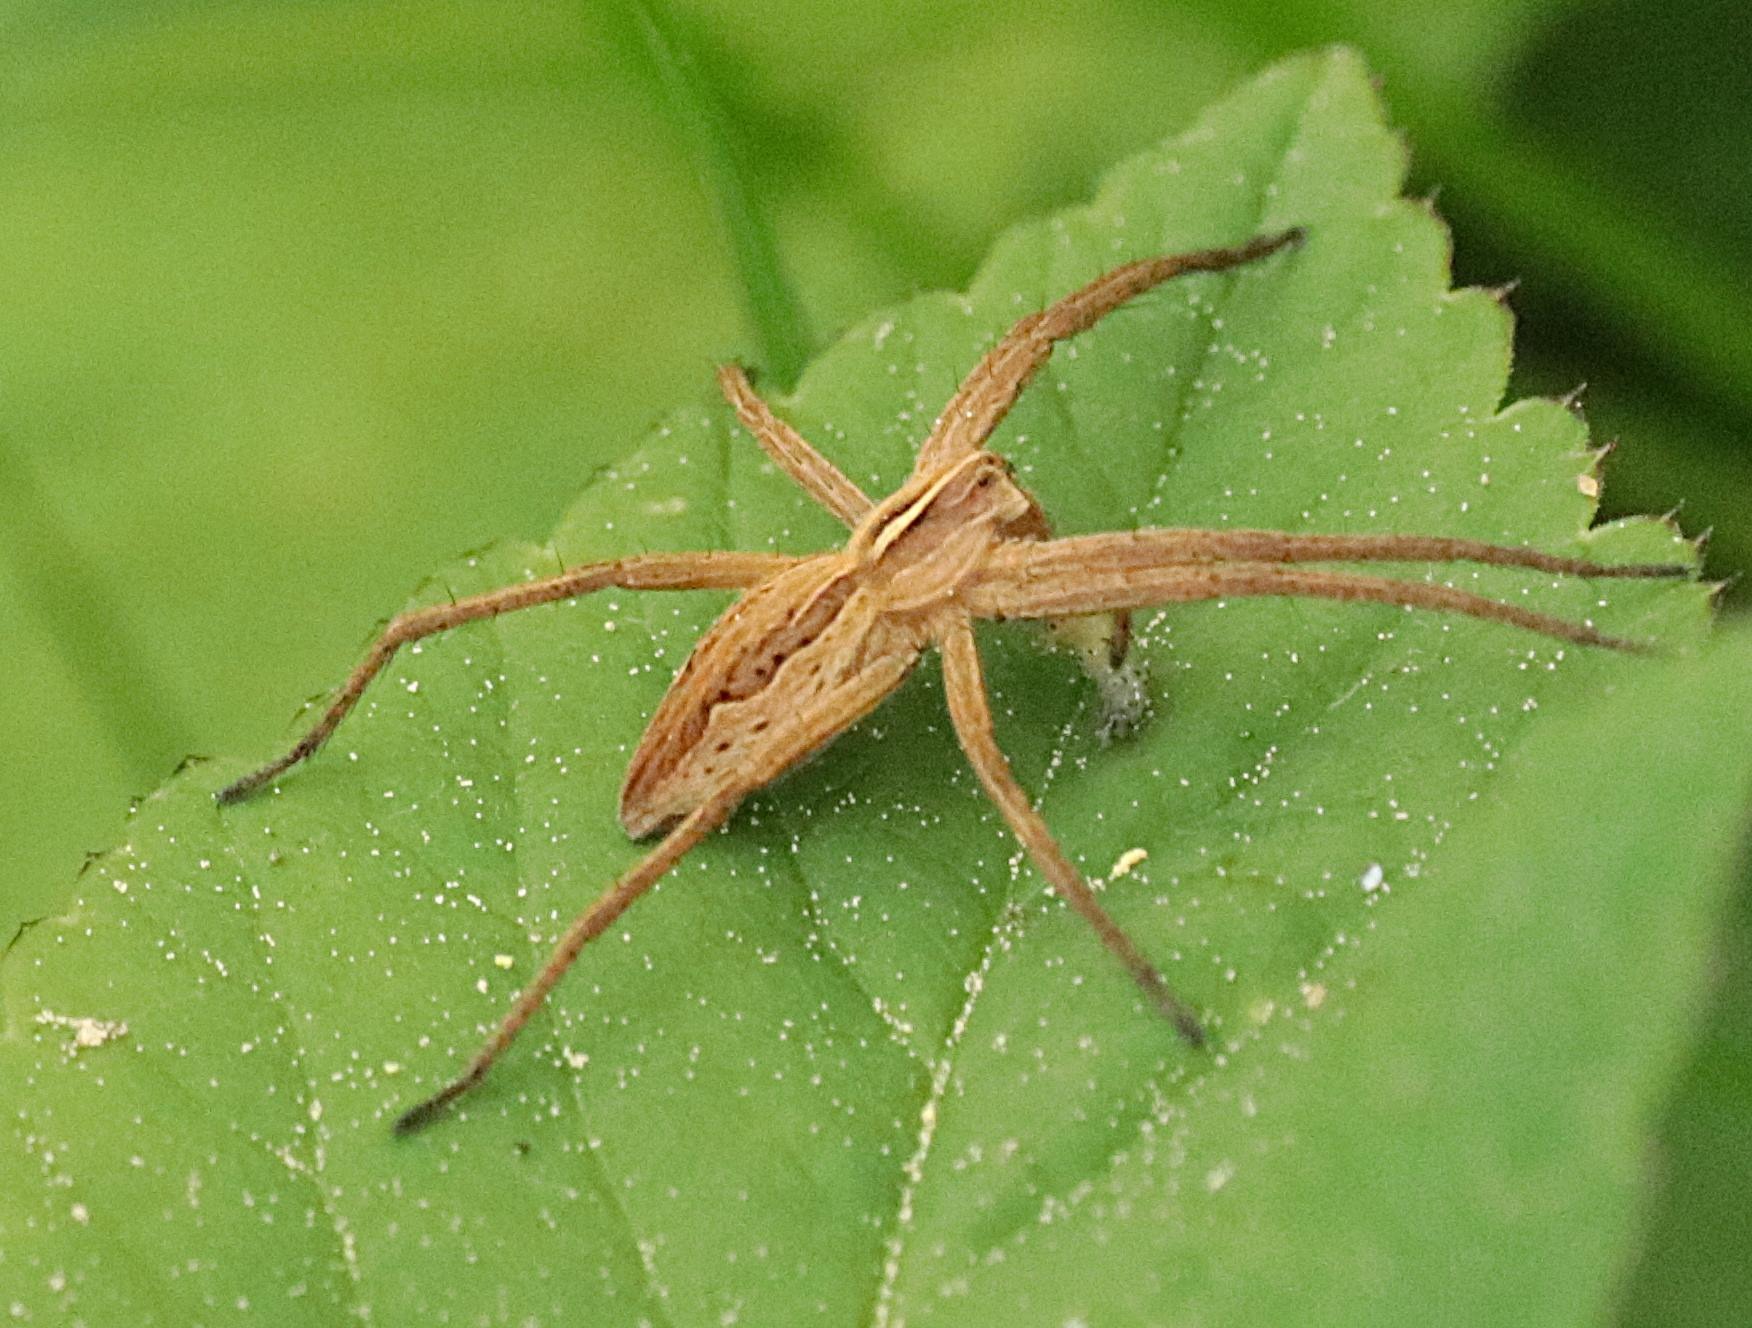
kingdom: Animalia
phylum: Arthropoda
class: Arachnida
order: Araneae
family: Pisauridae
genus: Pisaura
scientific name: Pisaura mirabilis
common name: Almindelig rovedderkop
